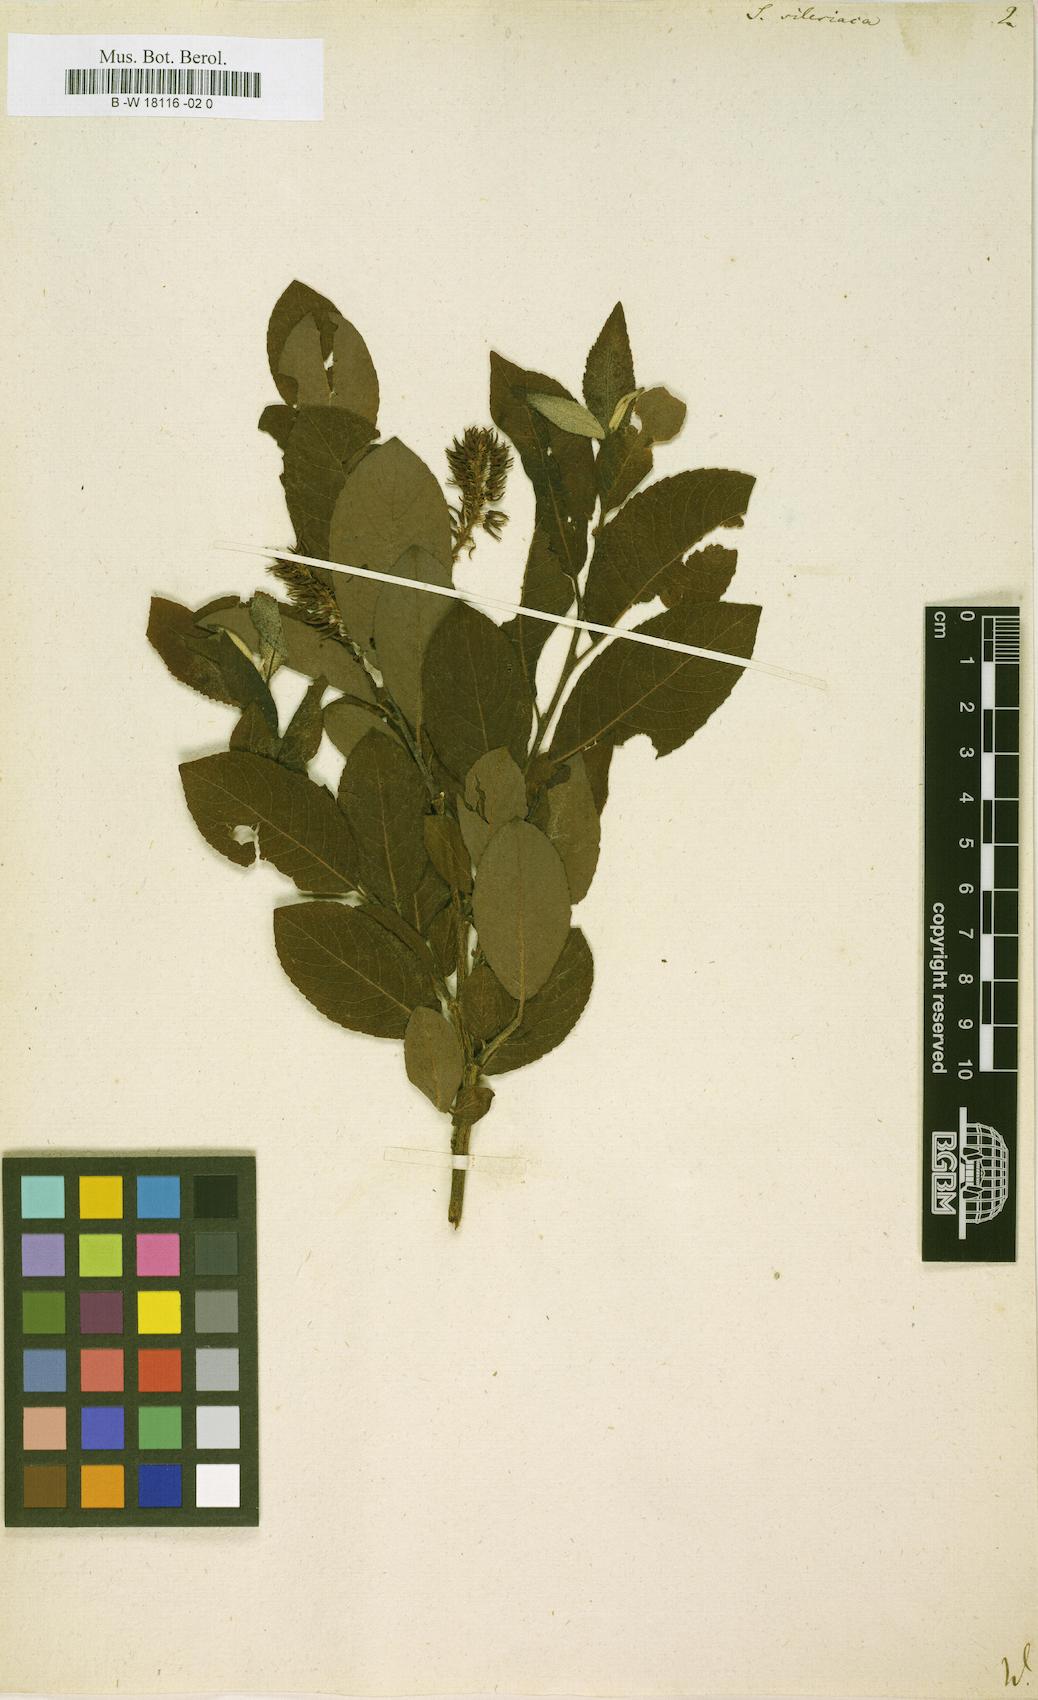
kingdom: Plantae
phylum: Tracheophyta
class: Magnoliopsida
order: Malpighiales
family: Salicaceae
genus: Salix
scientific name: Salix silesiaca
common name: Silesian willow
